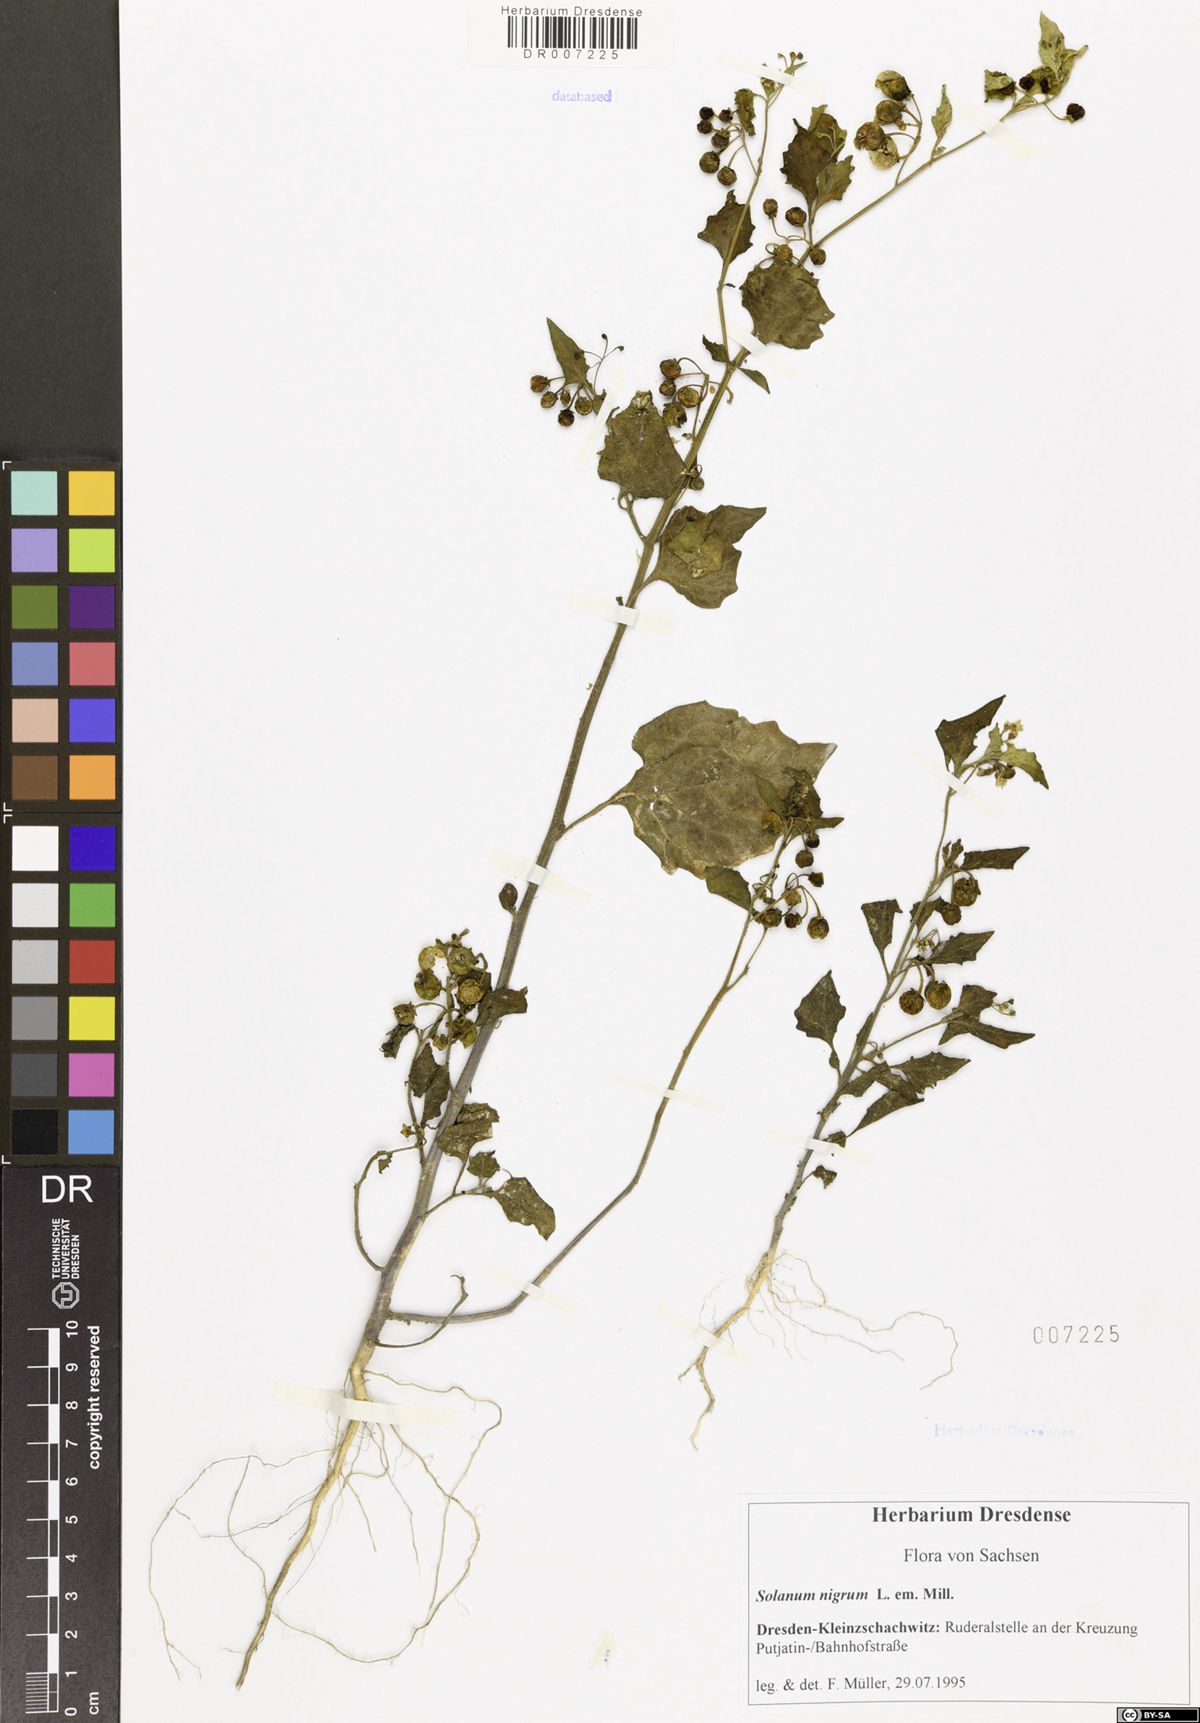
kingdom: Plantae
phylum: Tracheophyta
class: Magnoliopsida
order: Solanales
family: Solanaceae
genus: Solanum
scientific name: Solanum nigrum
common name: Black nightshade
